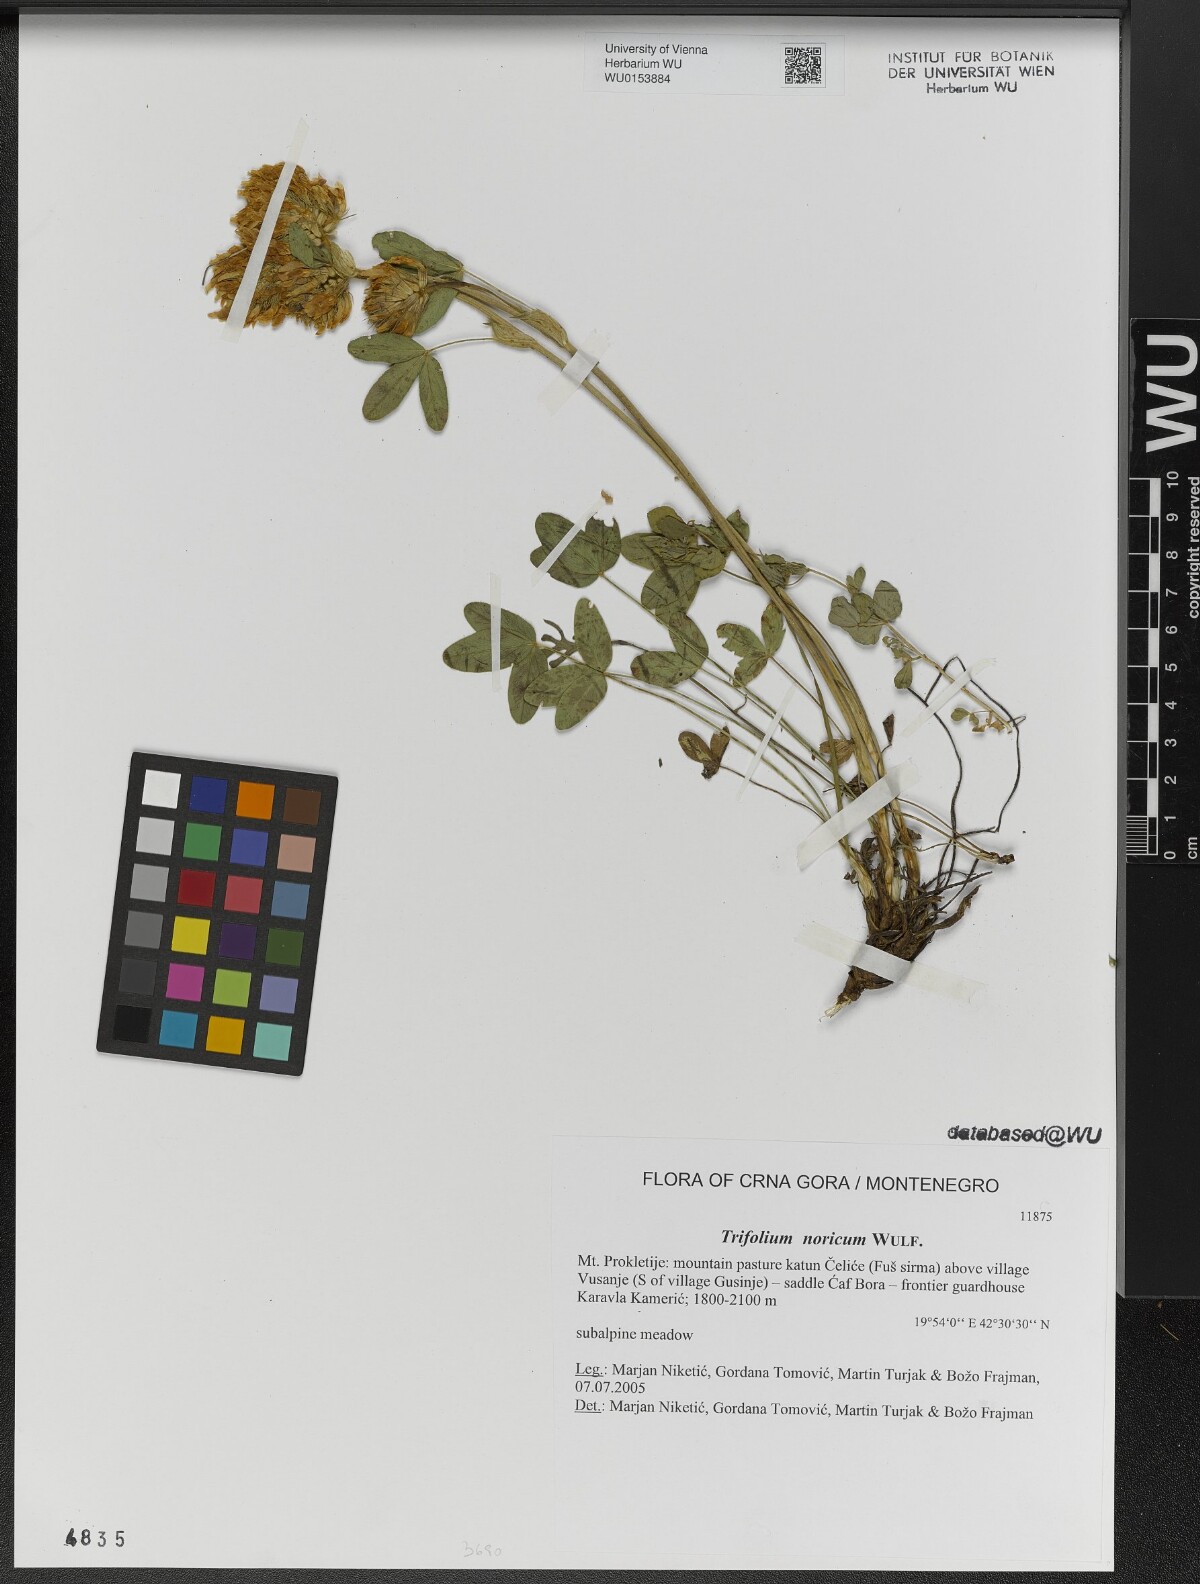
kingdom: Plantae
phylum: Tracheophyta
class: Magnoliopsida
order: Fabales
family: Fabaceae
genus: Trifolium
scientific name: Trifolium noricum
